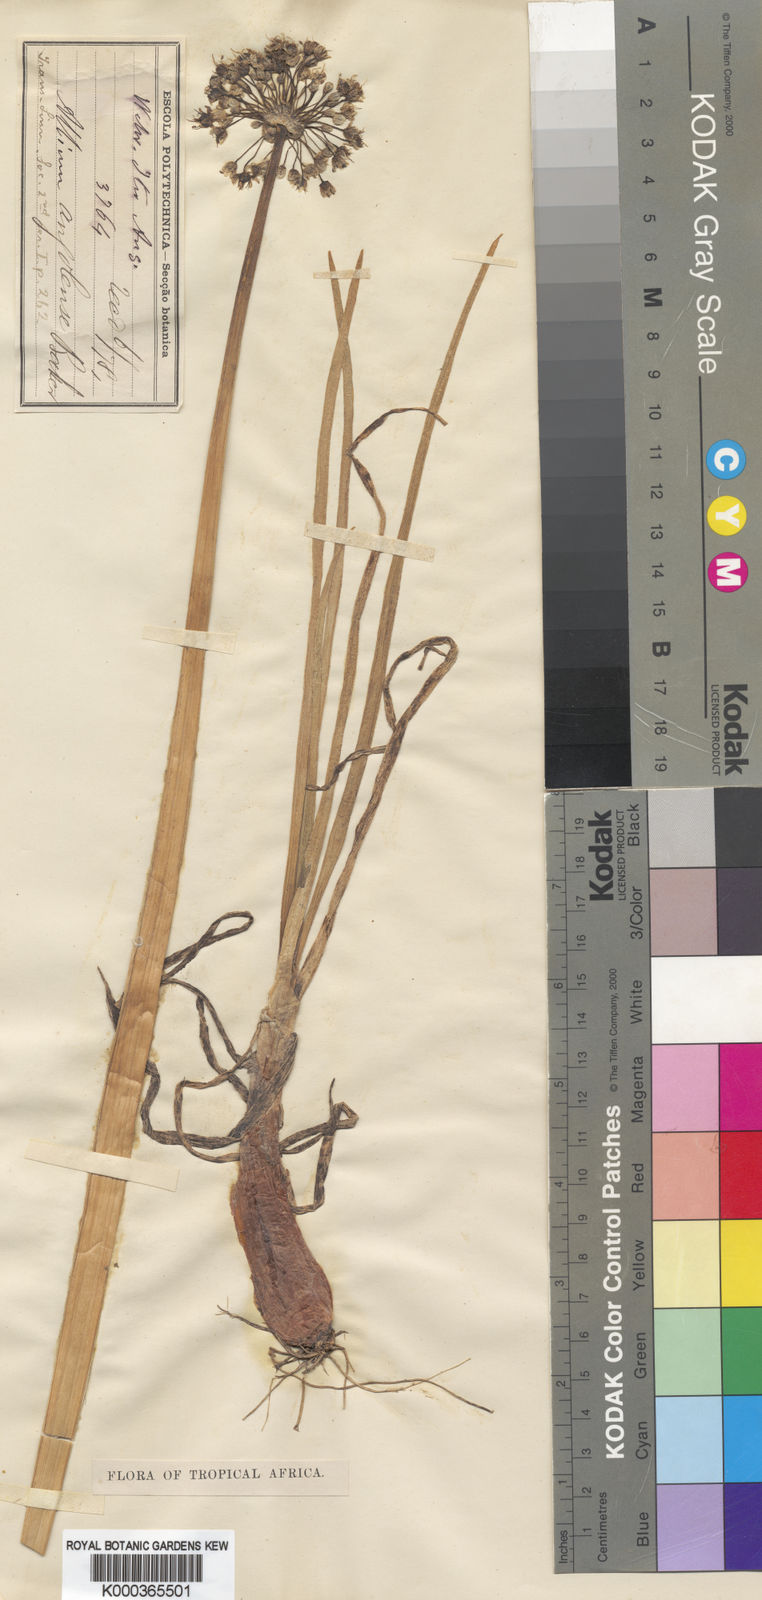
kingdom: Plantae
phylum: Tracheophyta
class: Liliopsida
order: Asparagales
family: Amaryllidaceae
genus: Allium
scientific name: Allium cepa
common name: Onion
